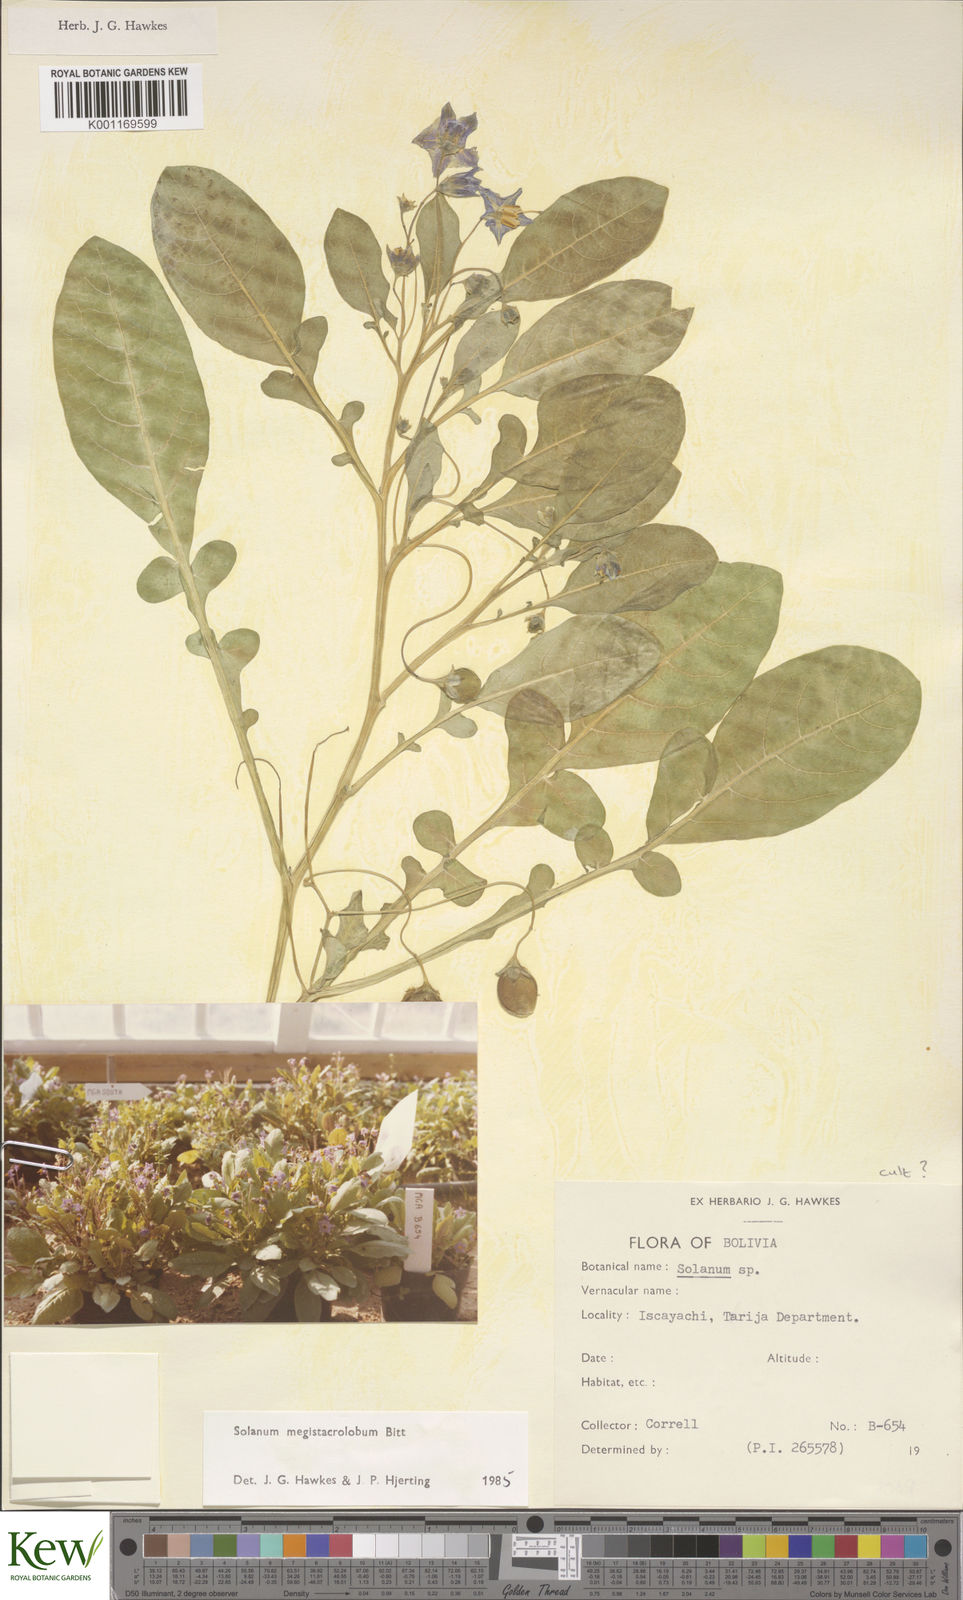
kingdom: Plantae
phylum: Tracheophyta
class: Magnoliopsida
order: Solanales
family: Solanaceae
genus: Solanum
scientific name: Solanum boliviense
